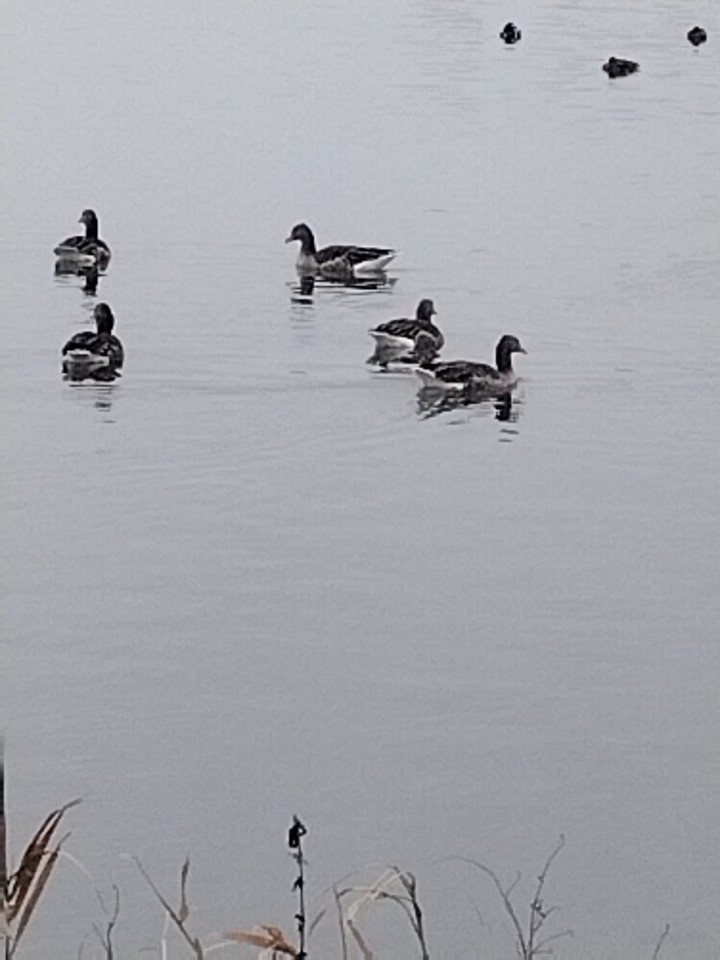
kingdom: Animalia
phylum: Chordata
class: Aves
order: Anseriformes
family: Anatidae
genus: Anser
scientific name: Anser anser
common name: Grågås
